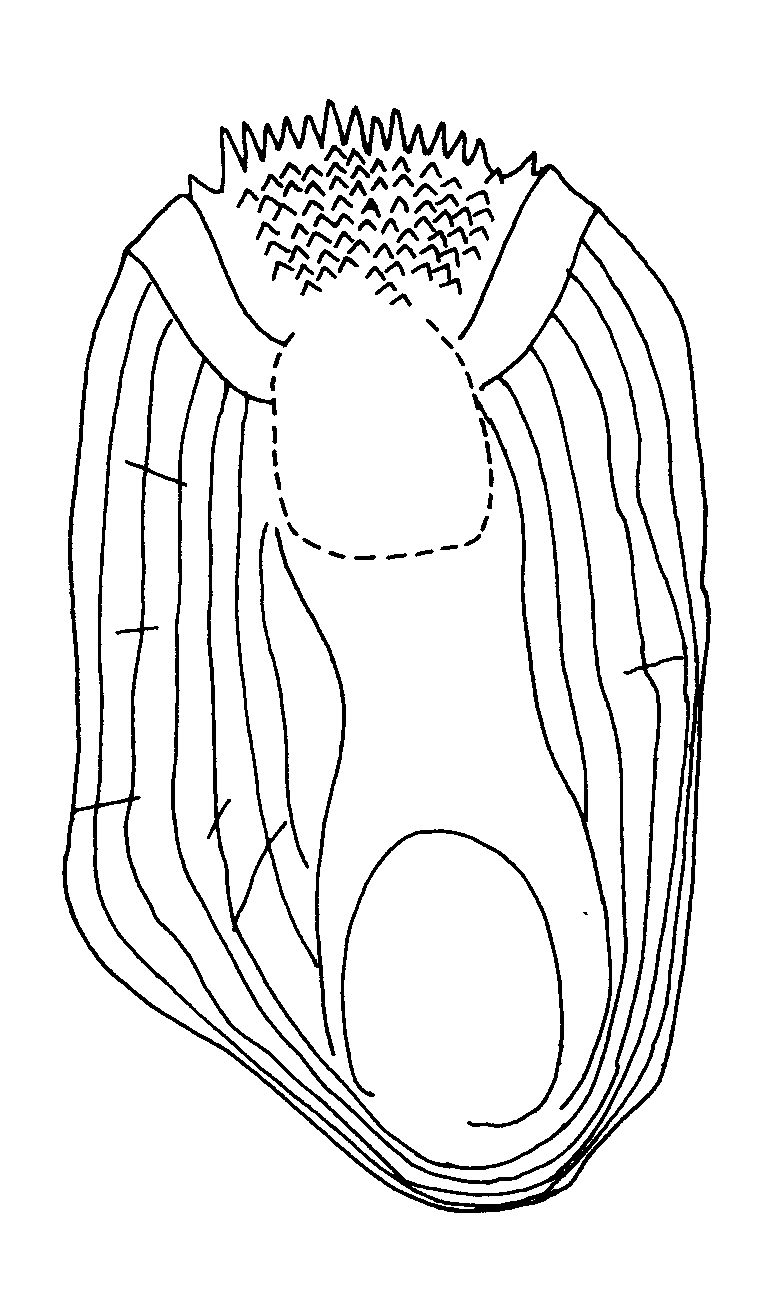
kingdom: Animalia
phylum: Chordata
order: Scorpaeniformes
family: Platycephalidae
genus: Thysanophrys
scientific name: Thysanophrys longirostris
